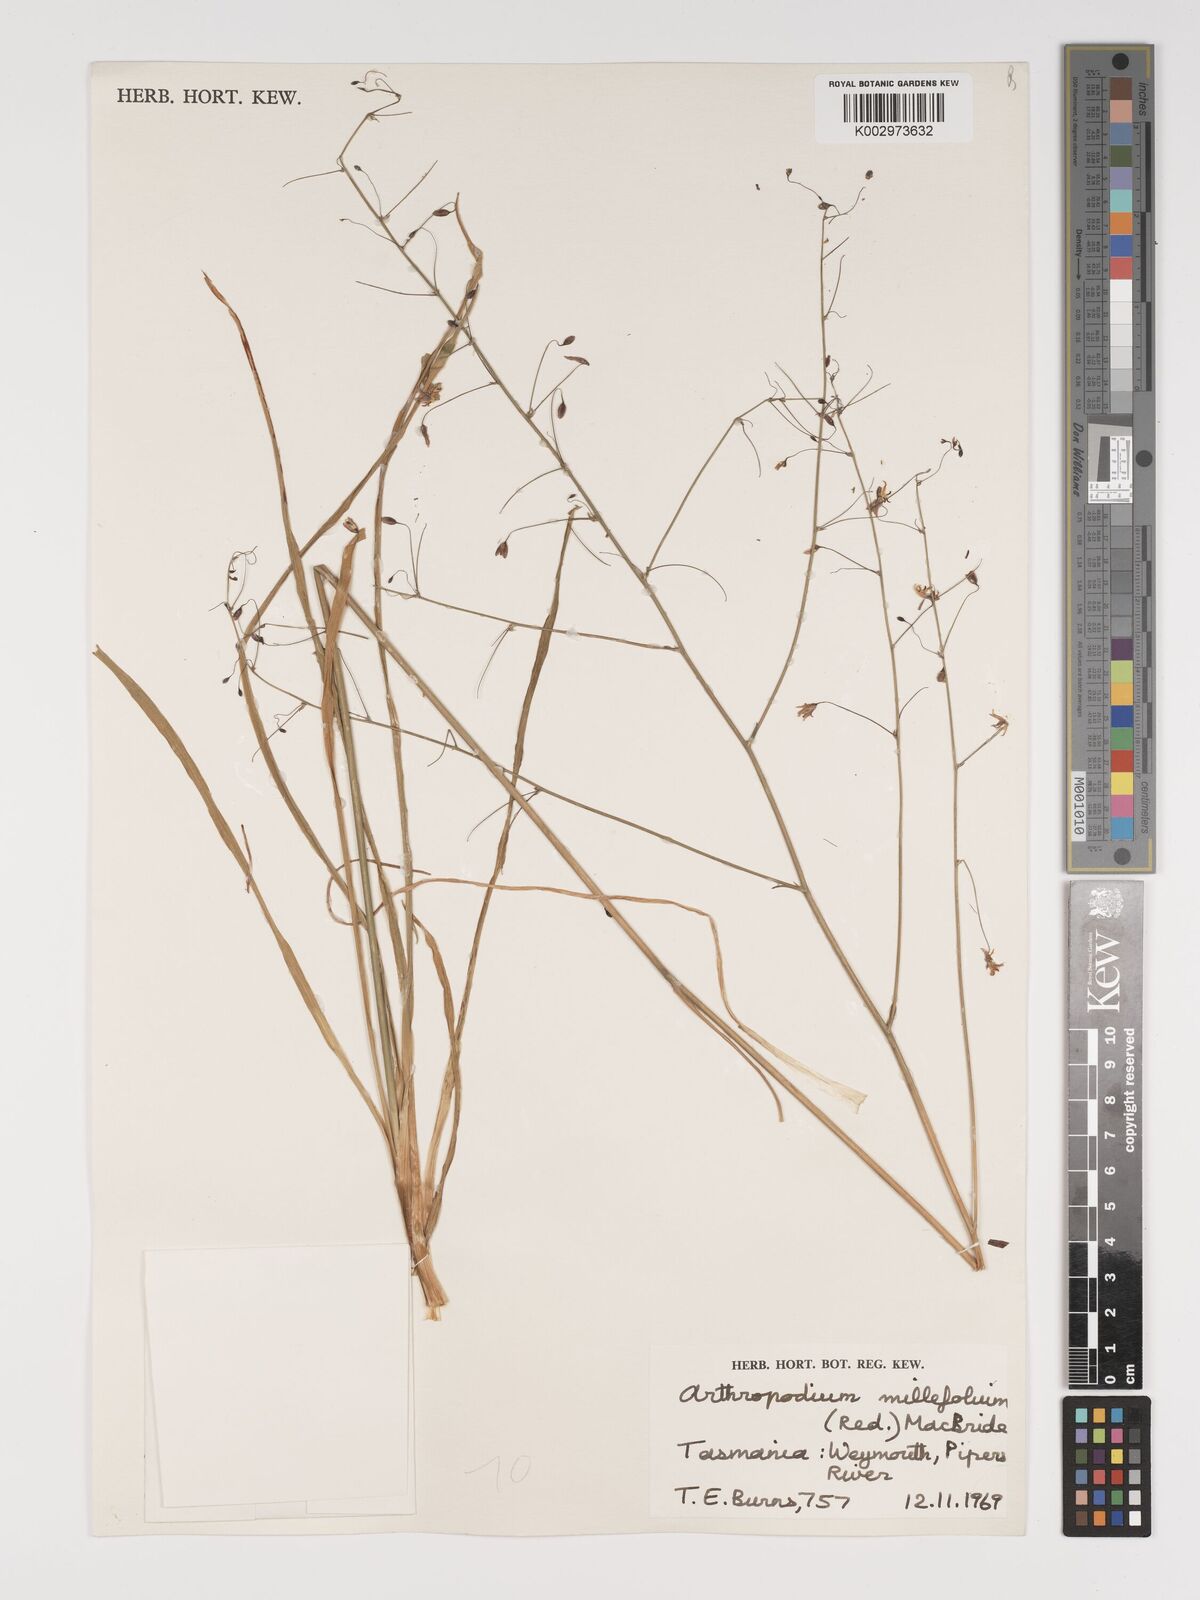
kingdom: Plantae
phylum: Tracheophyta
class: Liliopsida
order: Asparagales
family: Asparagaceae
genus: Arthropodium
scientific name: Arthropodium milleflorum
